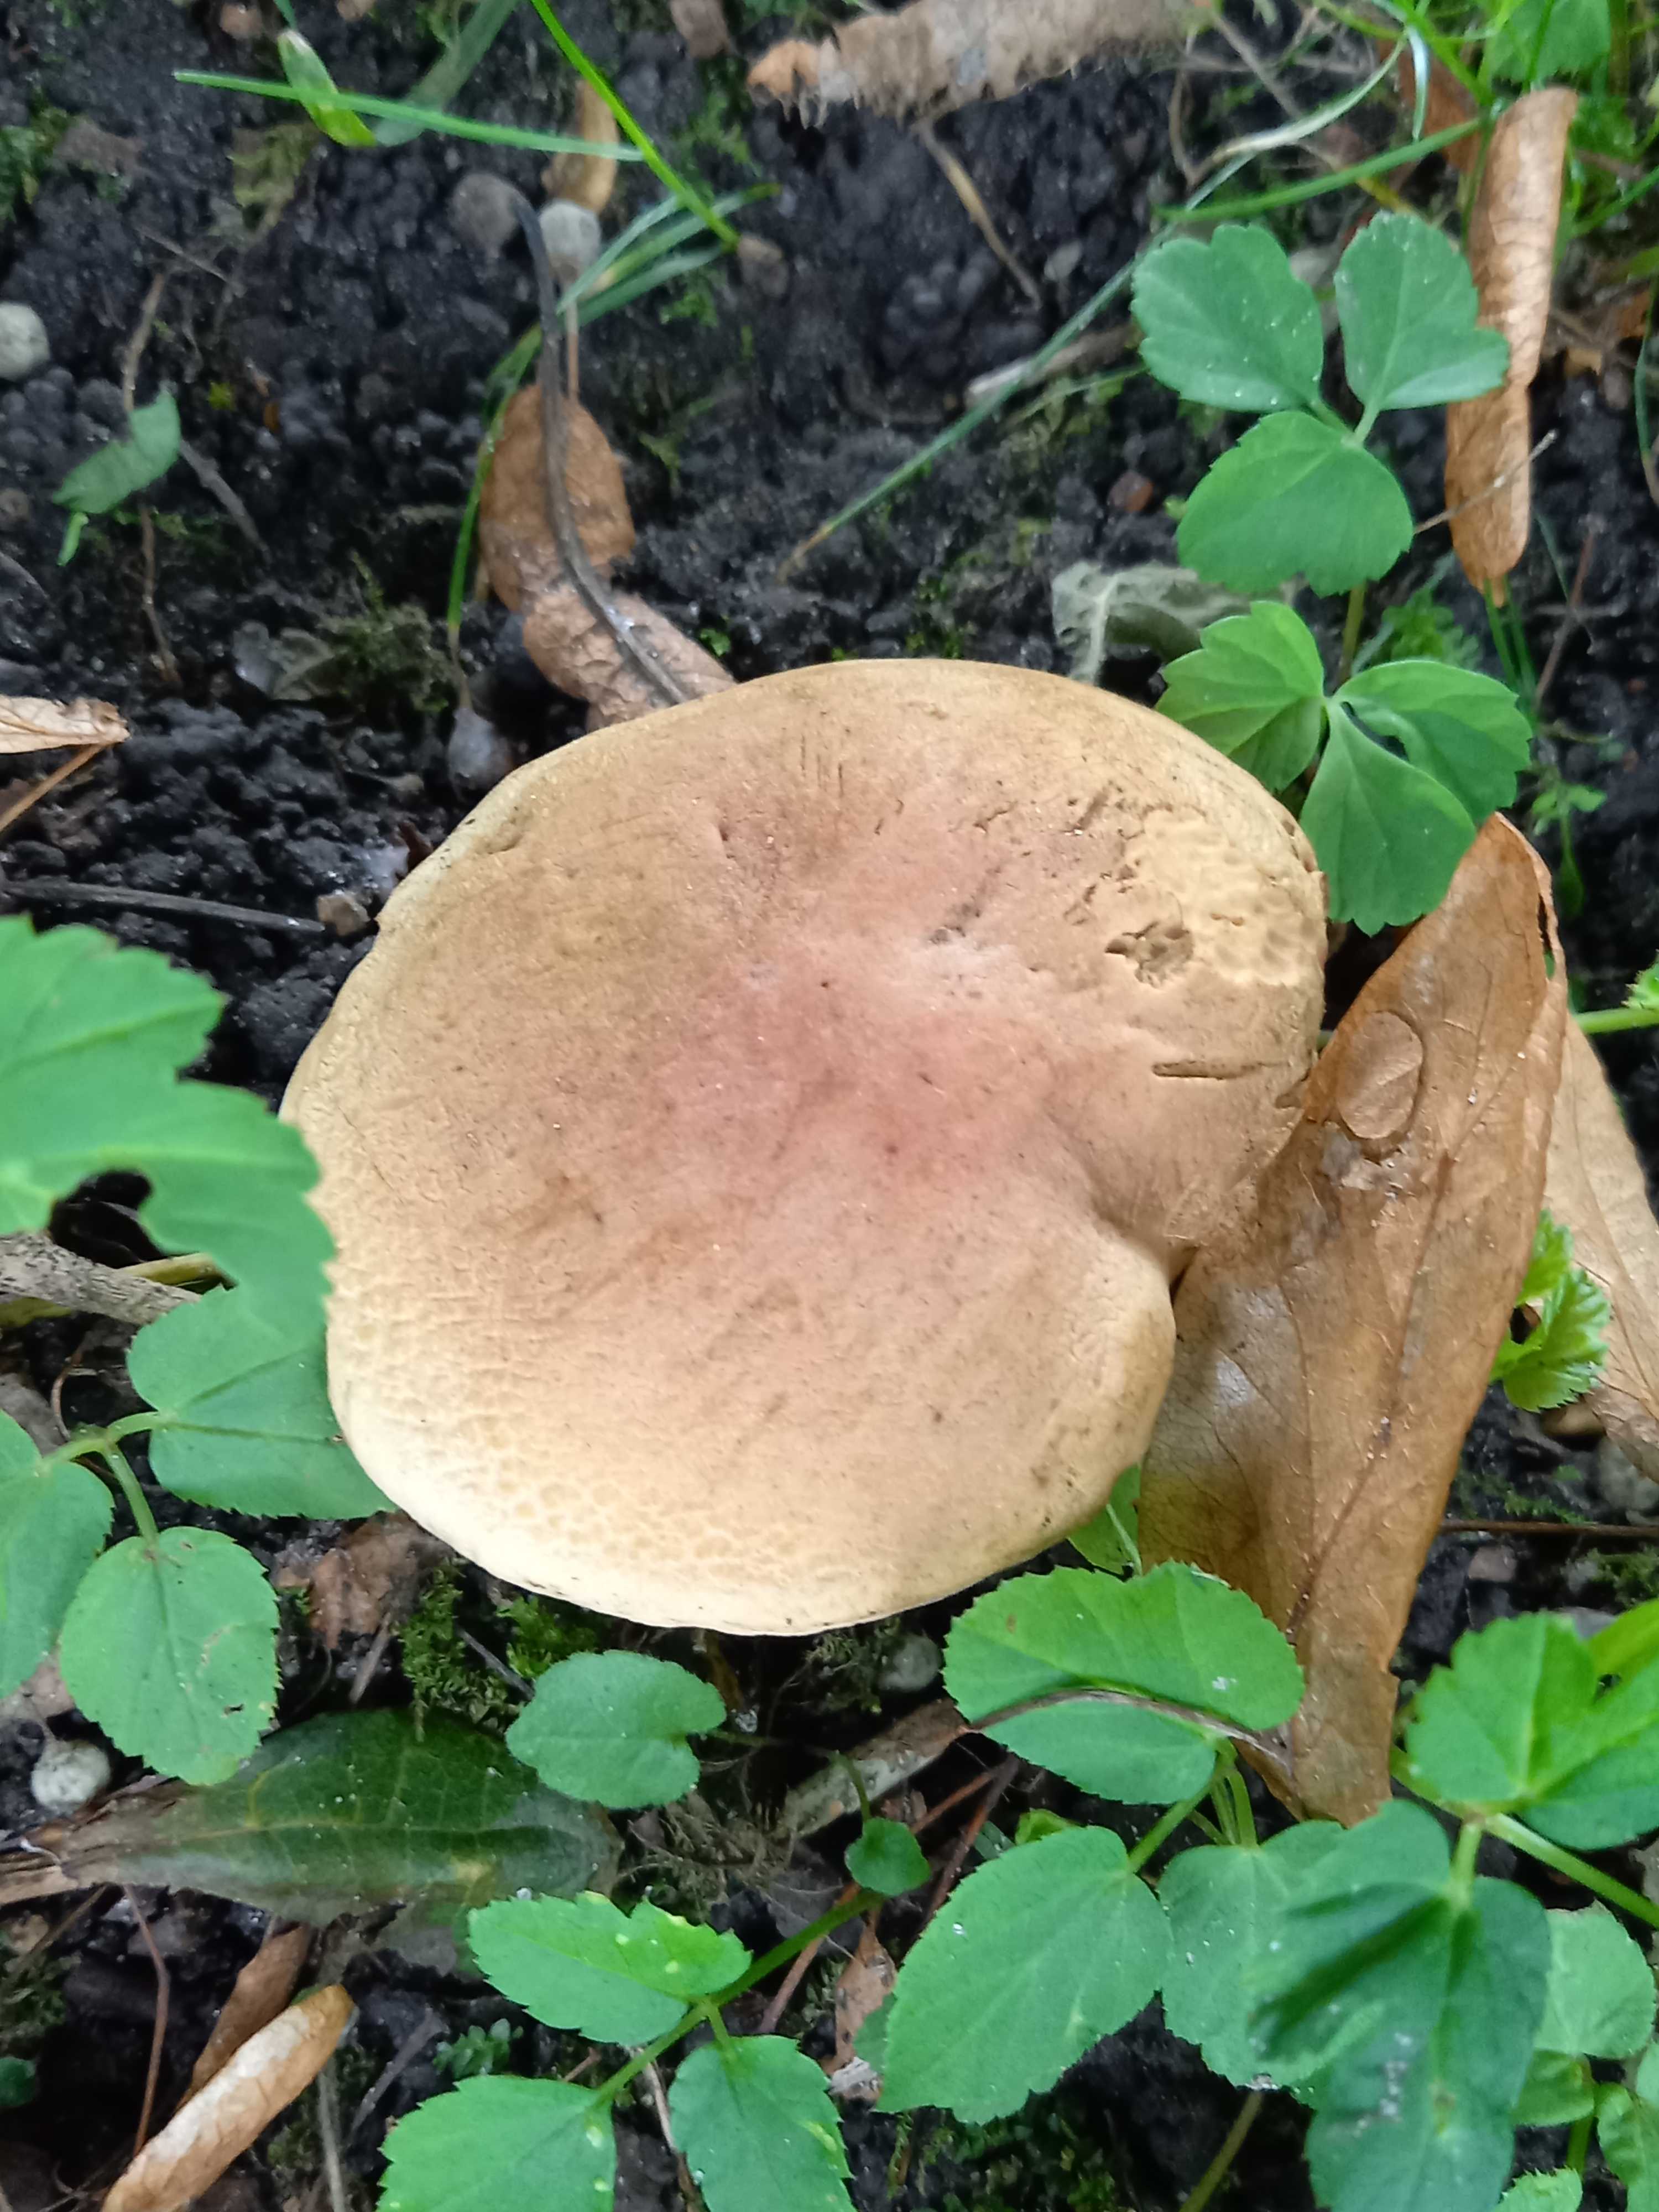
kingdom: Fungi
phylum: Basidiomycota
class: Agaricomycetes
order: Boletales
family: Boletaceae
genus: Hortiboletus
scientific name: Hortiboletus bubalinus
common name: aurora-rørhat
